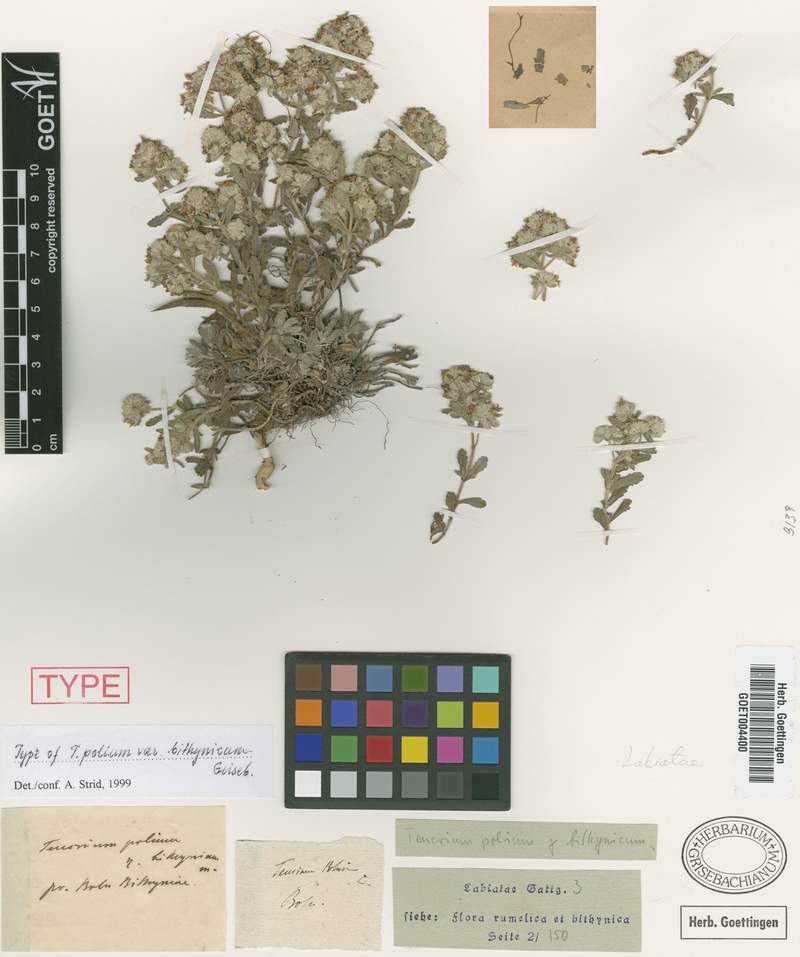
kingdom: Plantae
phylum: Tracheophyta
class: Magnoliopsida
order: Lamiales
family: Lamiaceae
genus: Teucrium
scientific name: Teucrium polium
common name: Poley
